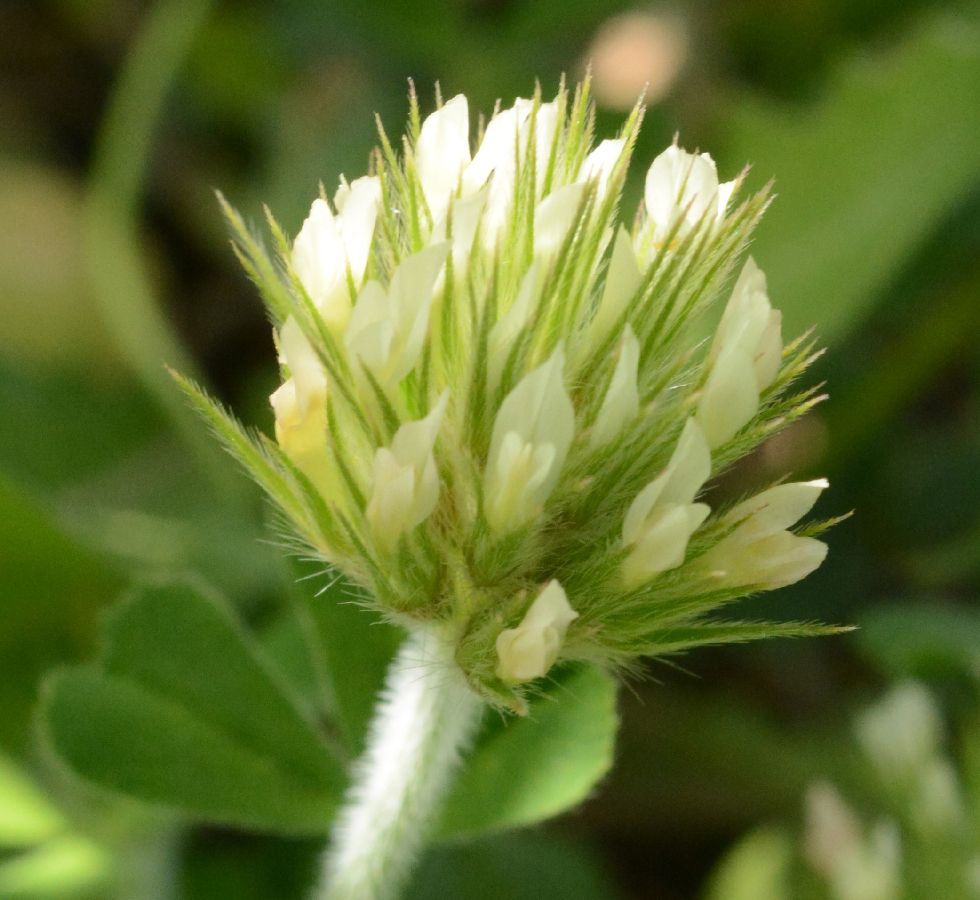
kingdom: Plantae
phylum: Tracheophyta
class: Magnoliopsida
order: Fabales
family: Fabaceae
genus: Trifolium
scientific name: Trifolium stellatum
